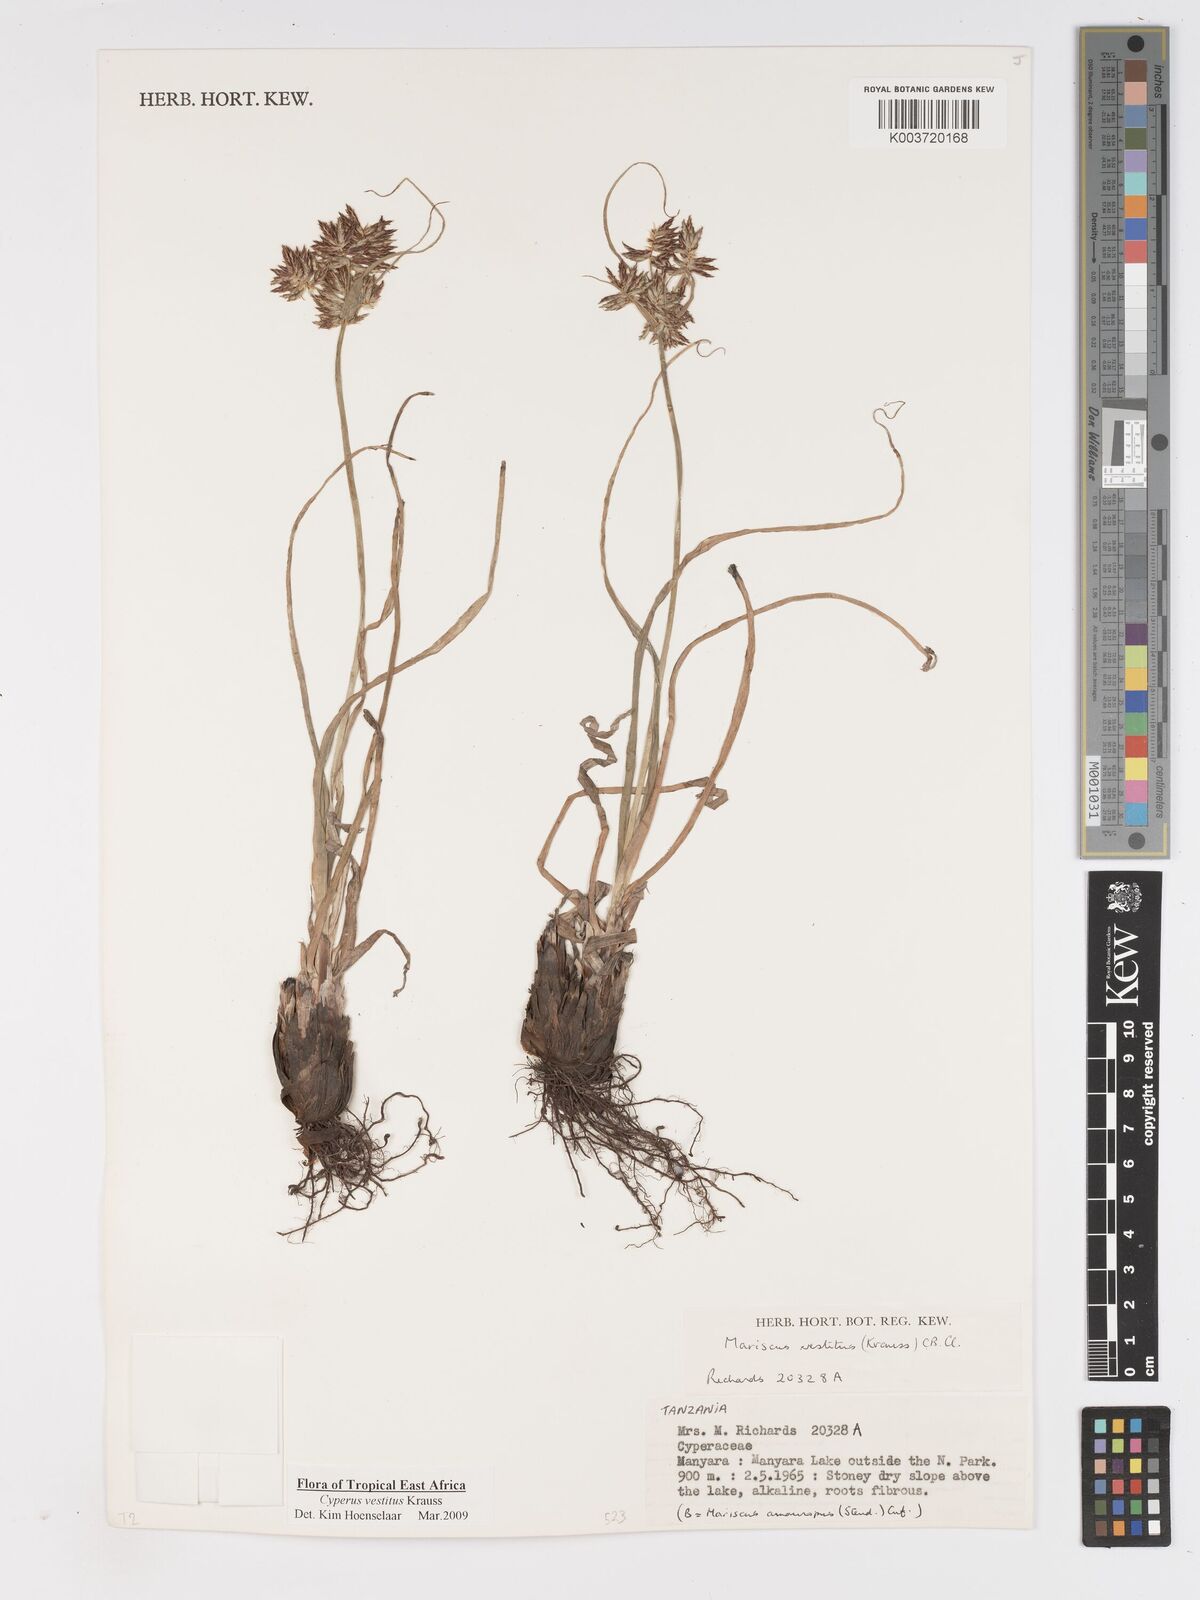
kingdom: Plantae
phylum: Tracheophyta
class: Liliopsida
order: Poales
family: Cyperaceae
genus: Cyperus
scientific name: Cyperus vestitus
